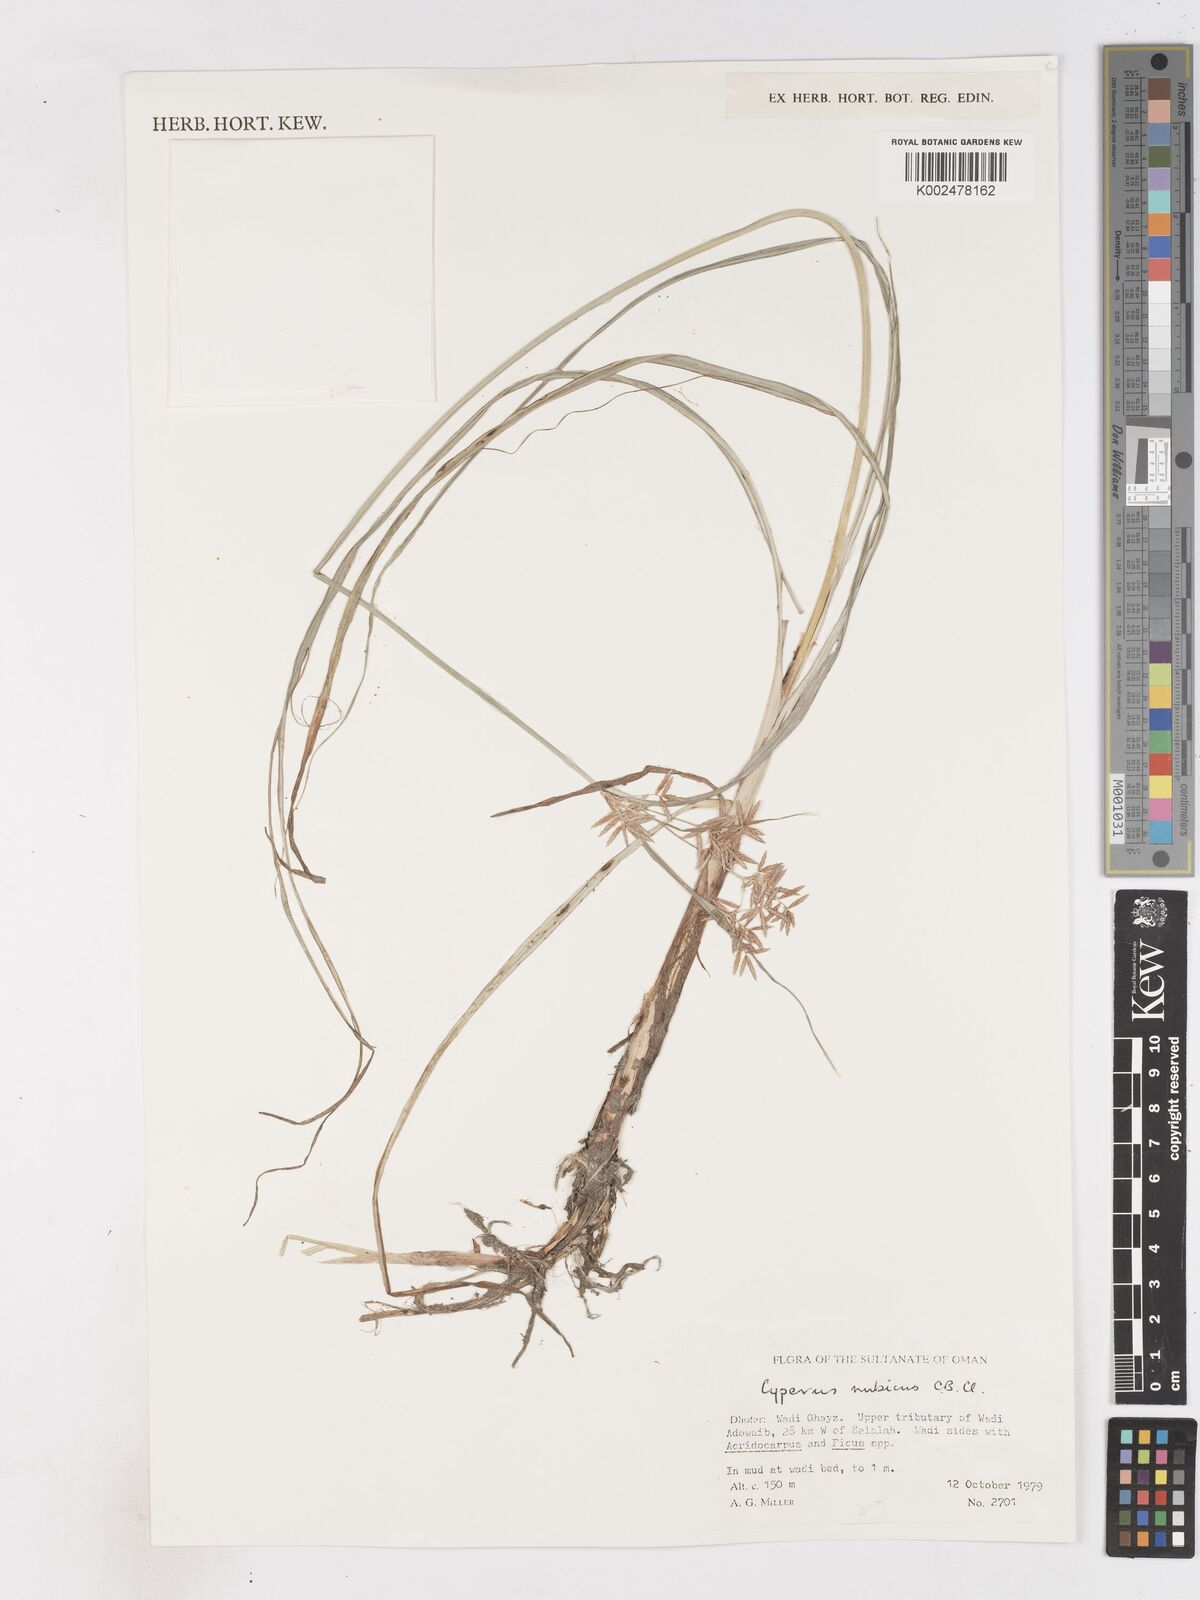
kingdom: Plantae
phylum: Tracheophyta
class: Liliopsida
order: Poales
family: Cyperaceae
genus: Cyperus
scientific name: Cyperus nubicus
